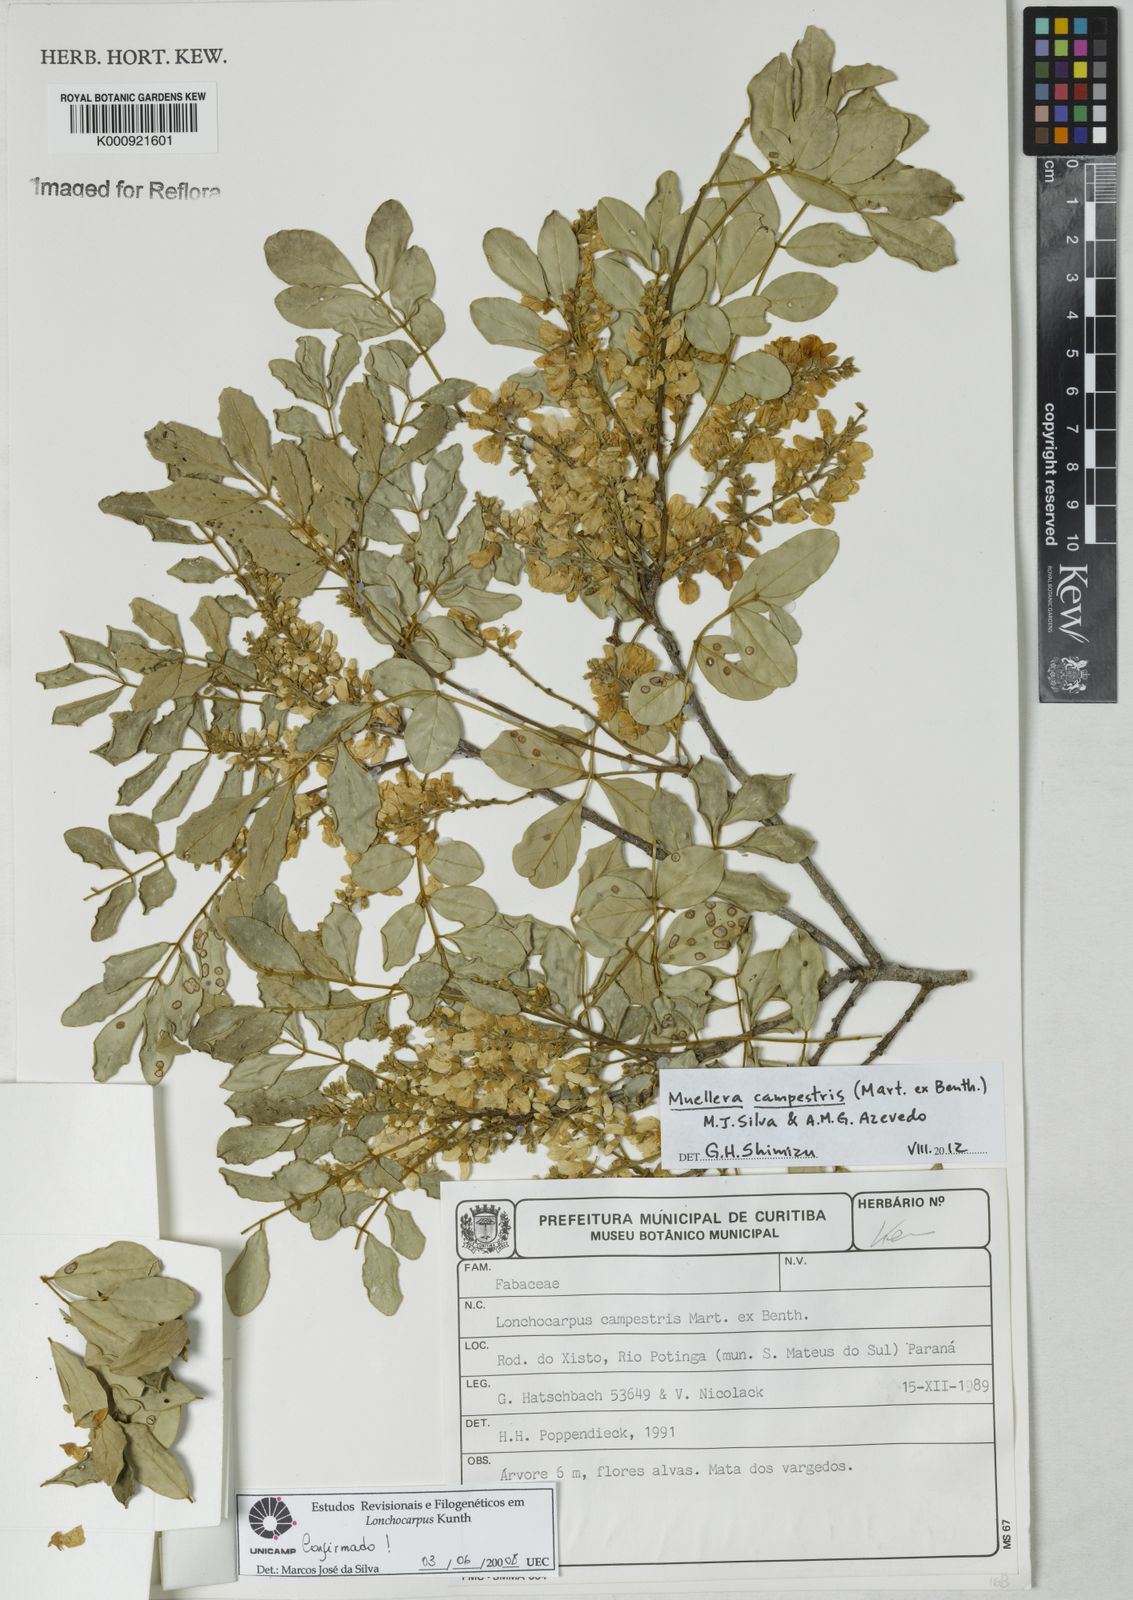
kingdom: Plantae
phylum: Tracheophyta
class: Magnoliopsida
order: Fabales
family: Fabaceae
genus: Muellera
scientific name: Muellera campestris
